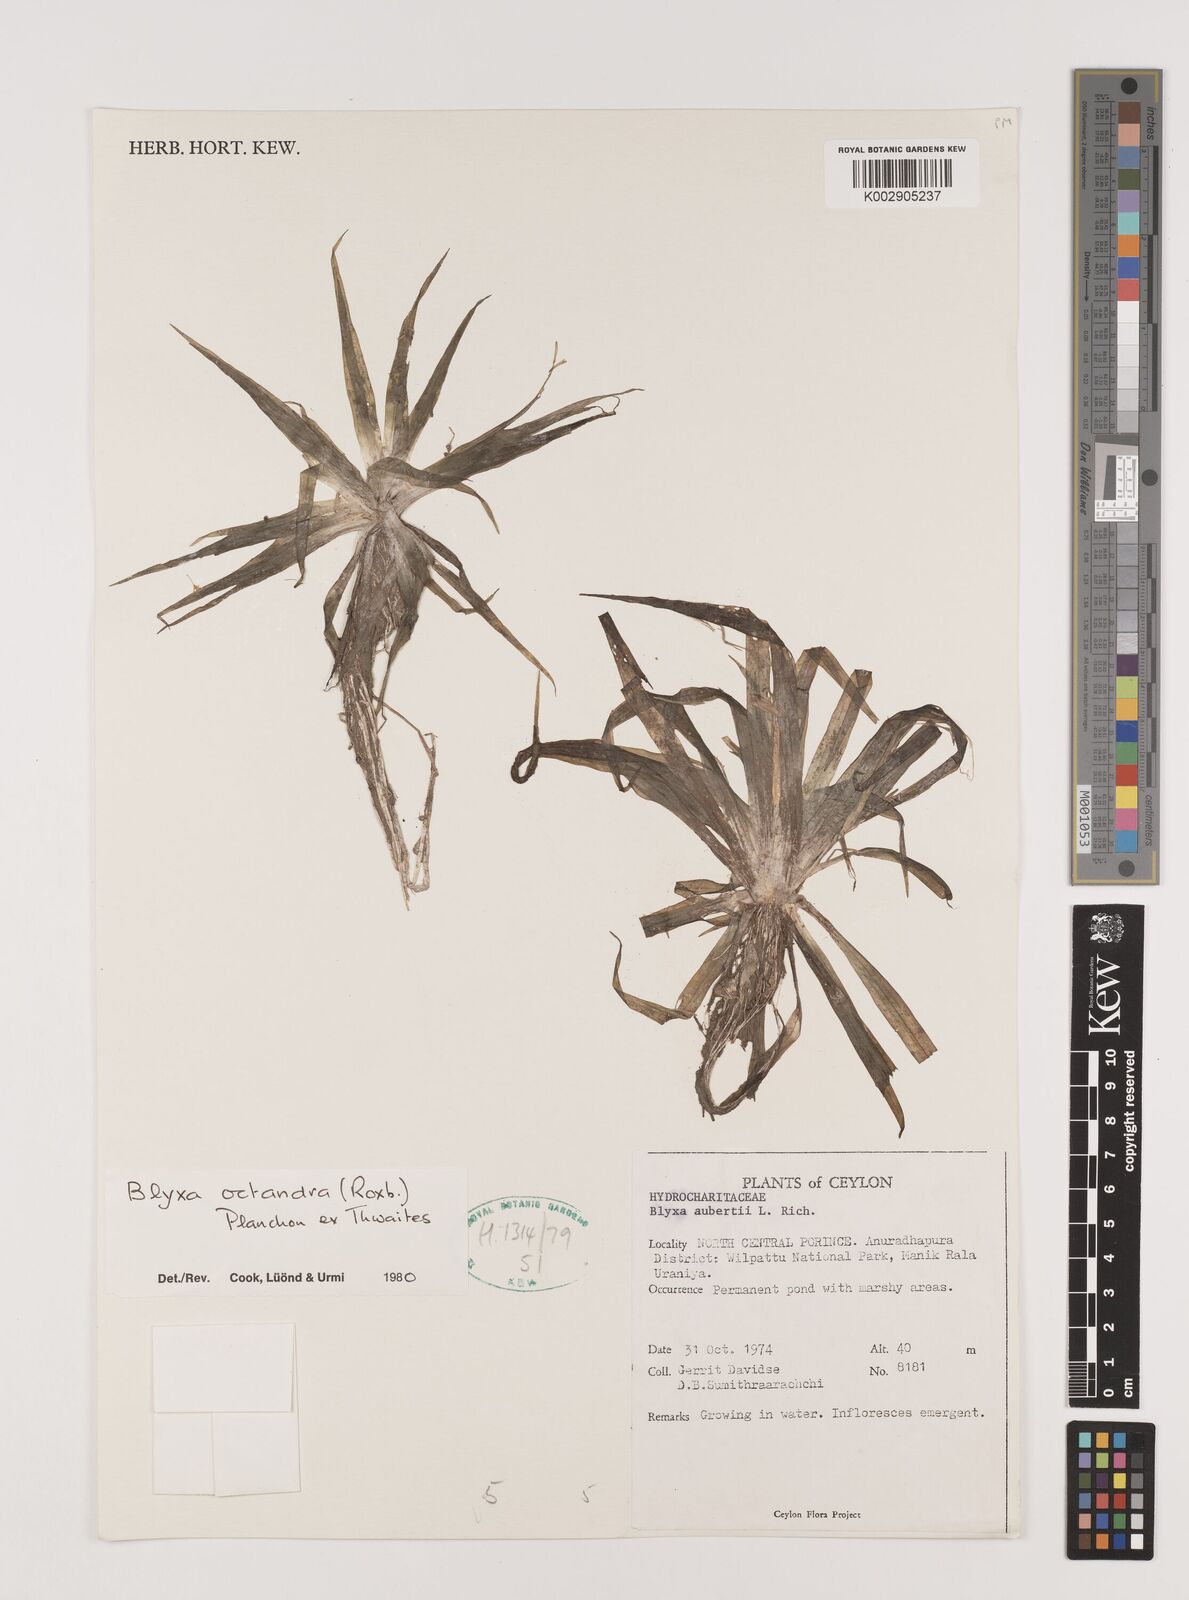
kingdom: Plantae
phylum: Tracheophyta
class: Liliopsida
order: Alismatales
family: Hydrocharitaceae
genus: Blyxa
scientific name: Blyxa octandra
